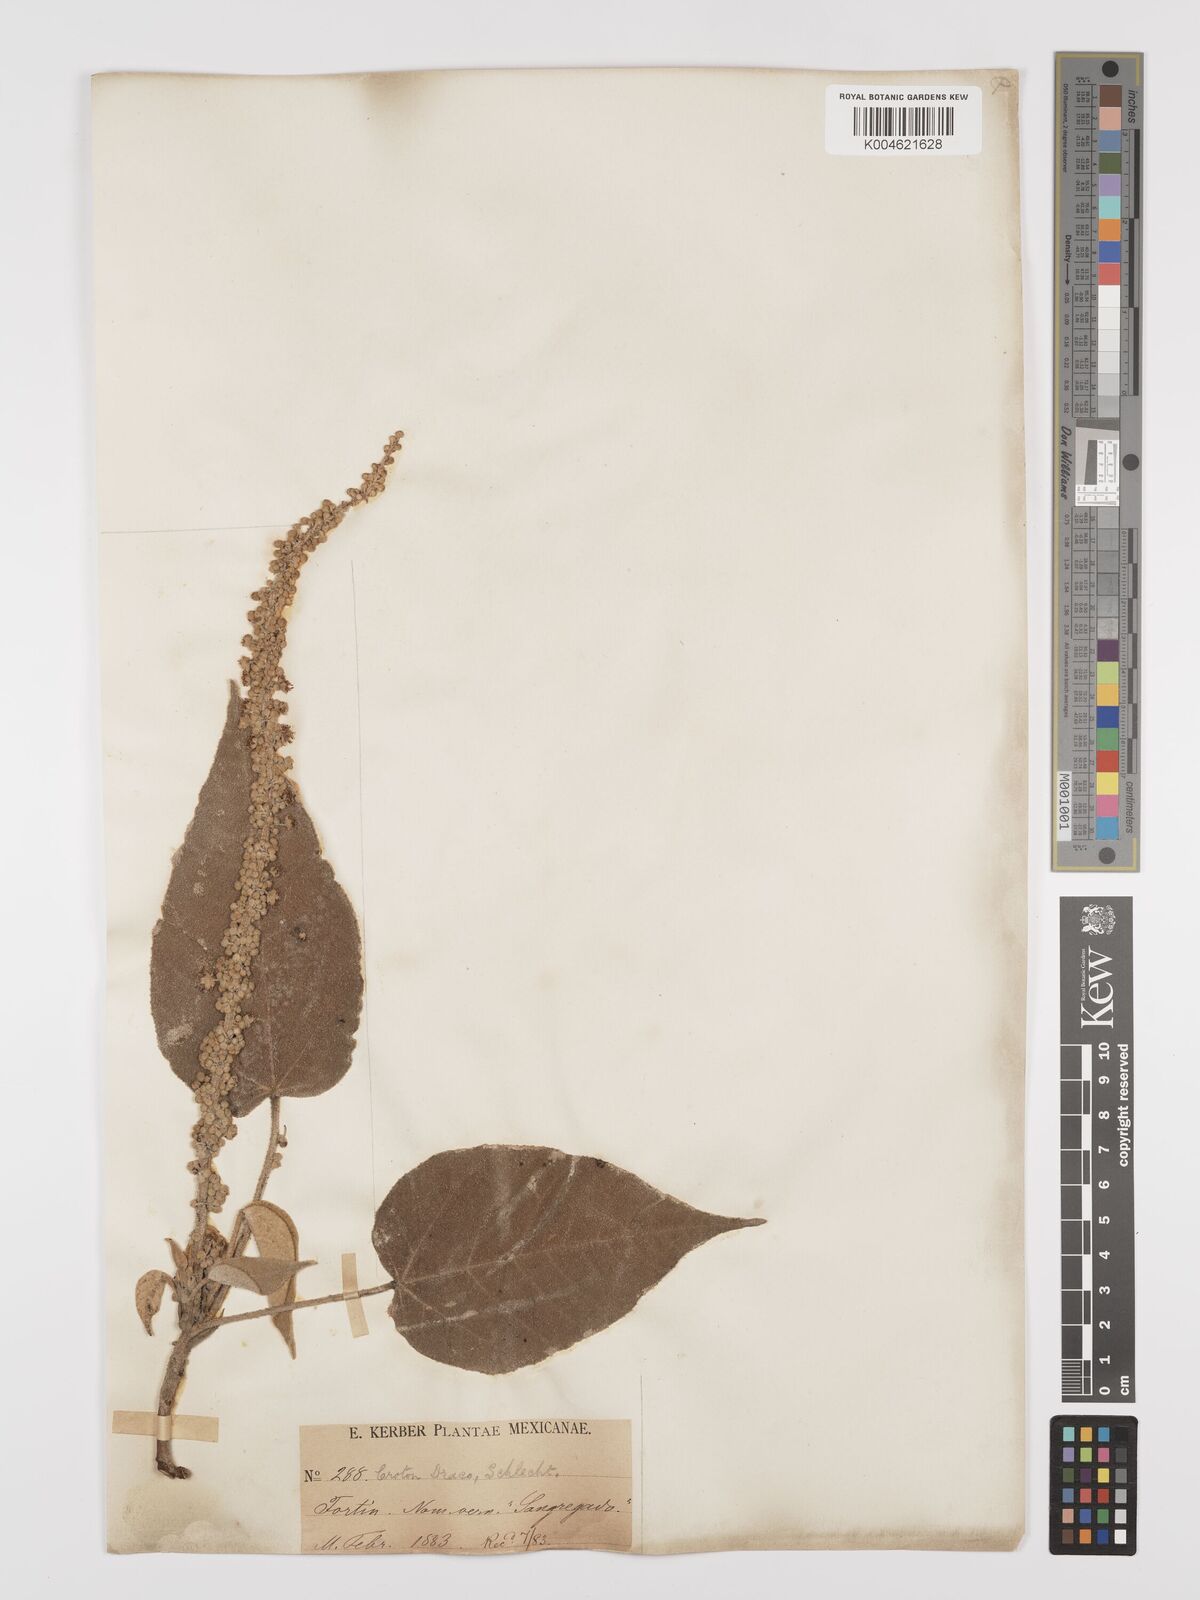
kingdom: Plantae
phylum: Tracheophyta
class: Magnoliopsida
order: Malpighiales
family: Euphorbiaceae
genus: Croton
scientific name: Croton draco
